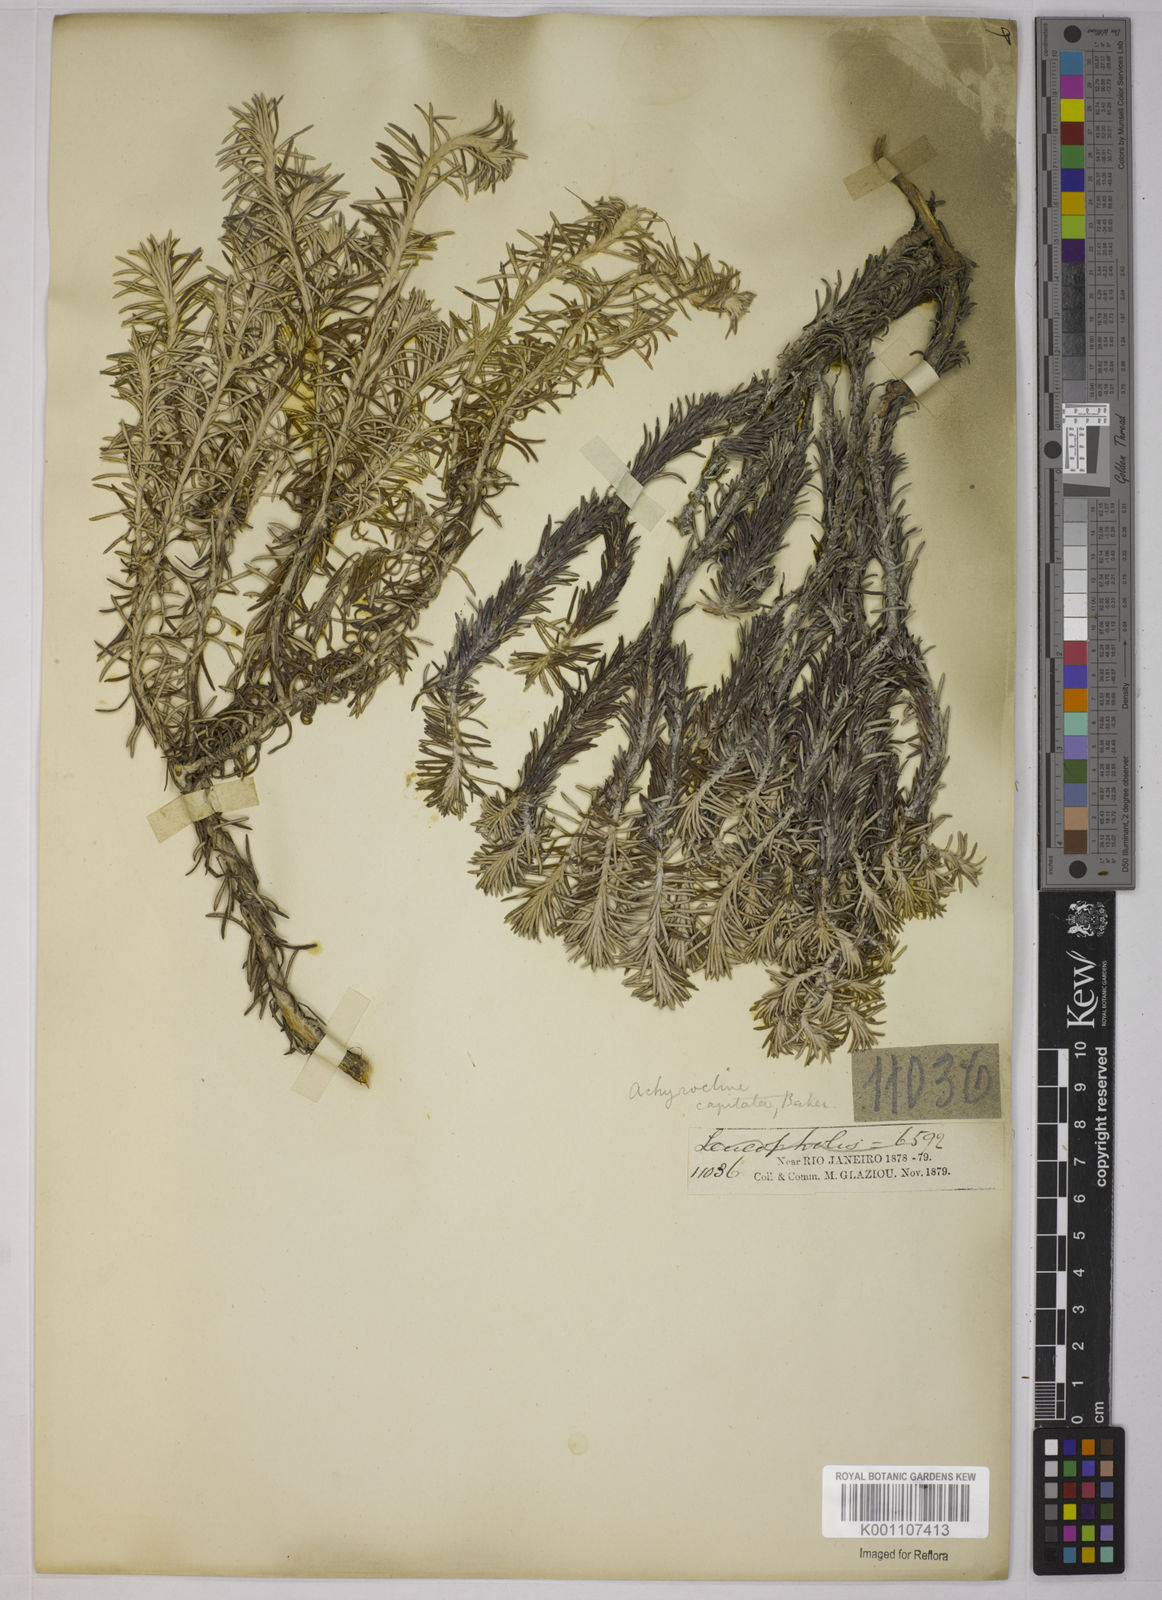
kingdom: Plantae
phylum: Tracheophyta
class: Magnoliopsida
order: Asterales
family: Asteraceae
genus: Chionolaena
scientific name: Chionolaena capitata
